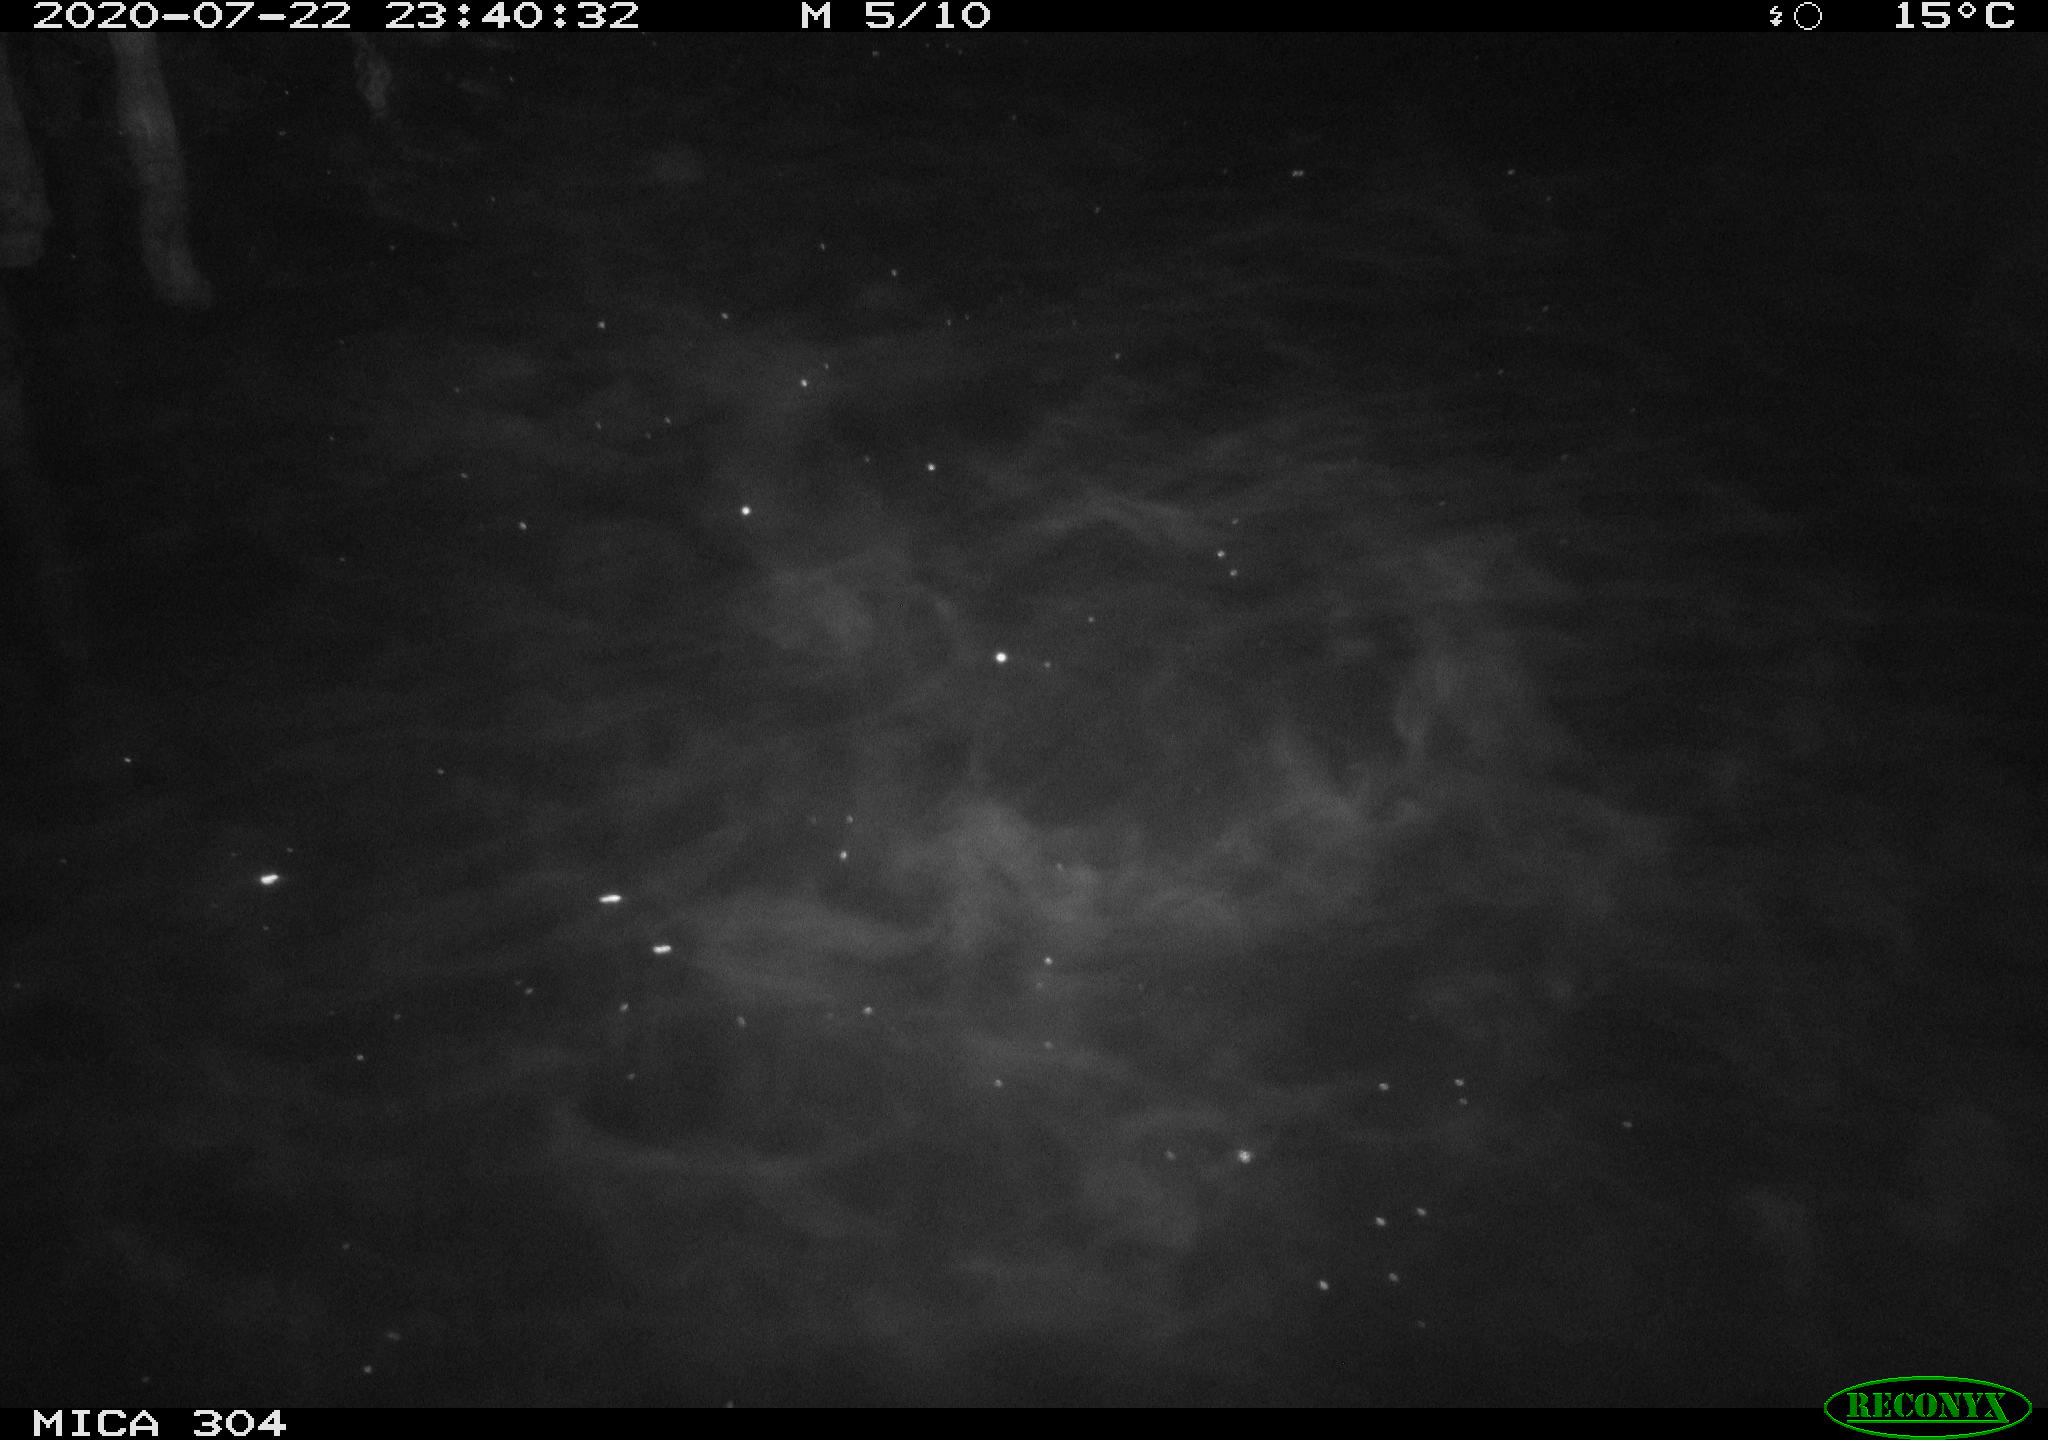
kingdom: Animalia
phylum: Chordata
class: Mammalia
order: Rodentia
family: Cricetidae
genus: Ondatra
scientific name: Ondatra zibethicus
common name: Muskrat
